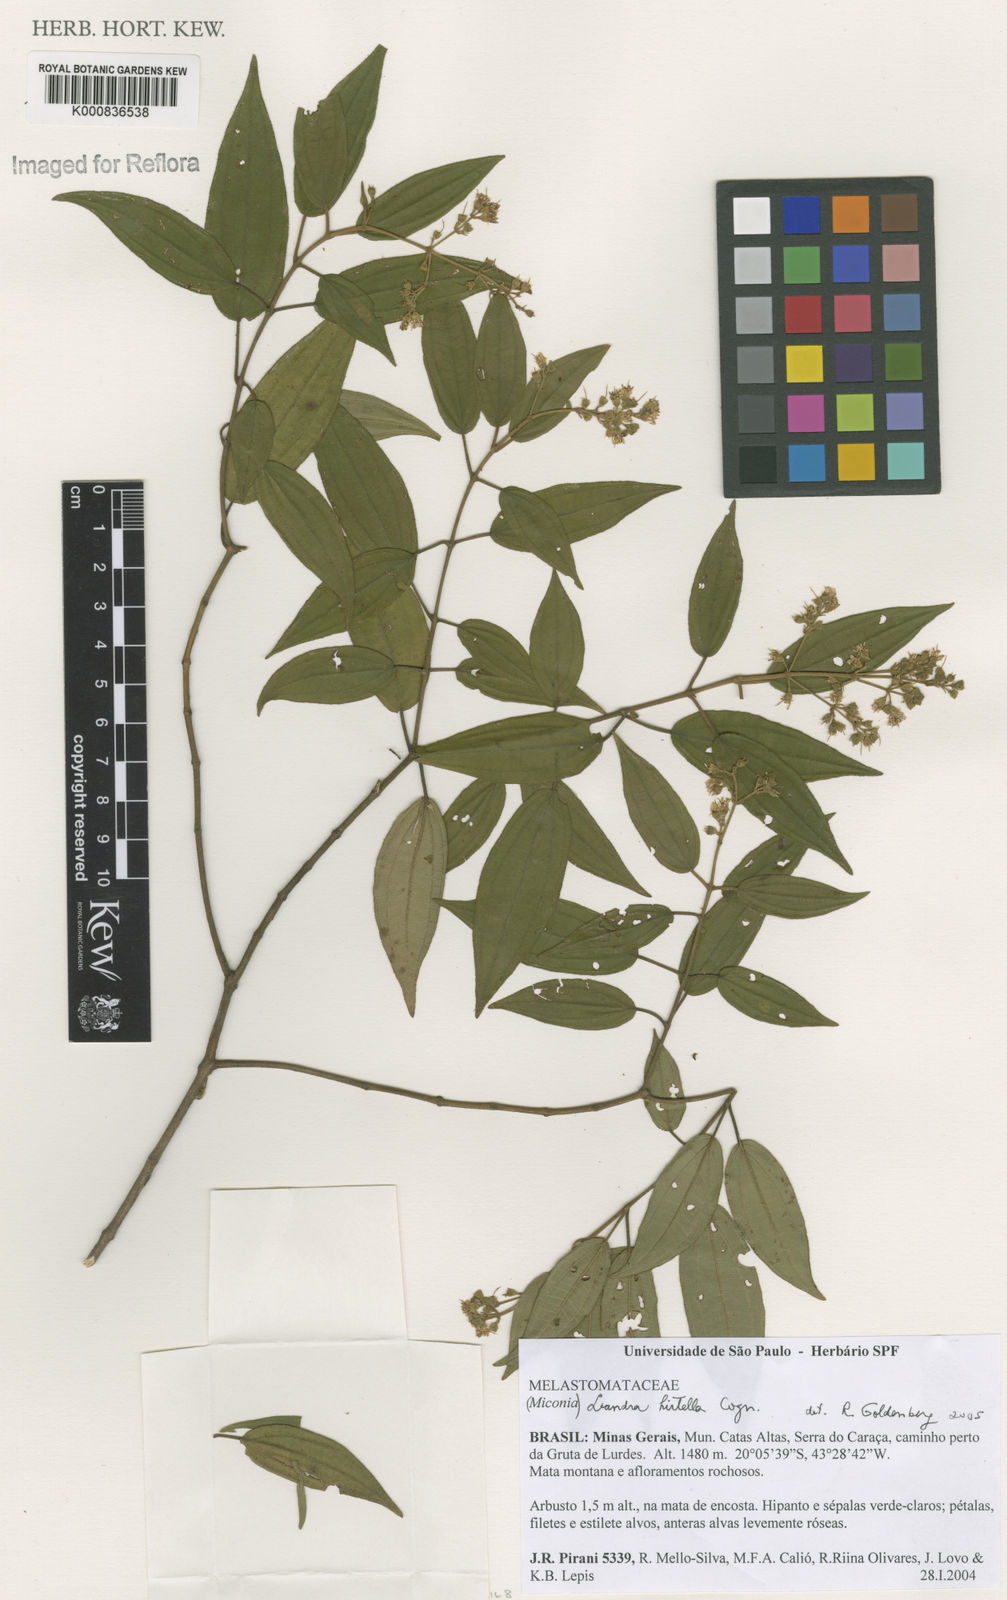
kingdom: Plantae
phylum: Tracheophyta
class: Magnoliopsida
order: Myrtales
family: Melastomataceae
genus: Miconia
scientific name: Miconia leahirtella
